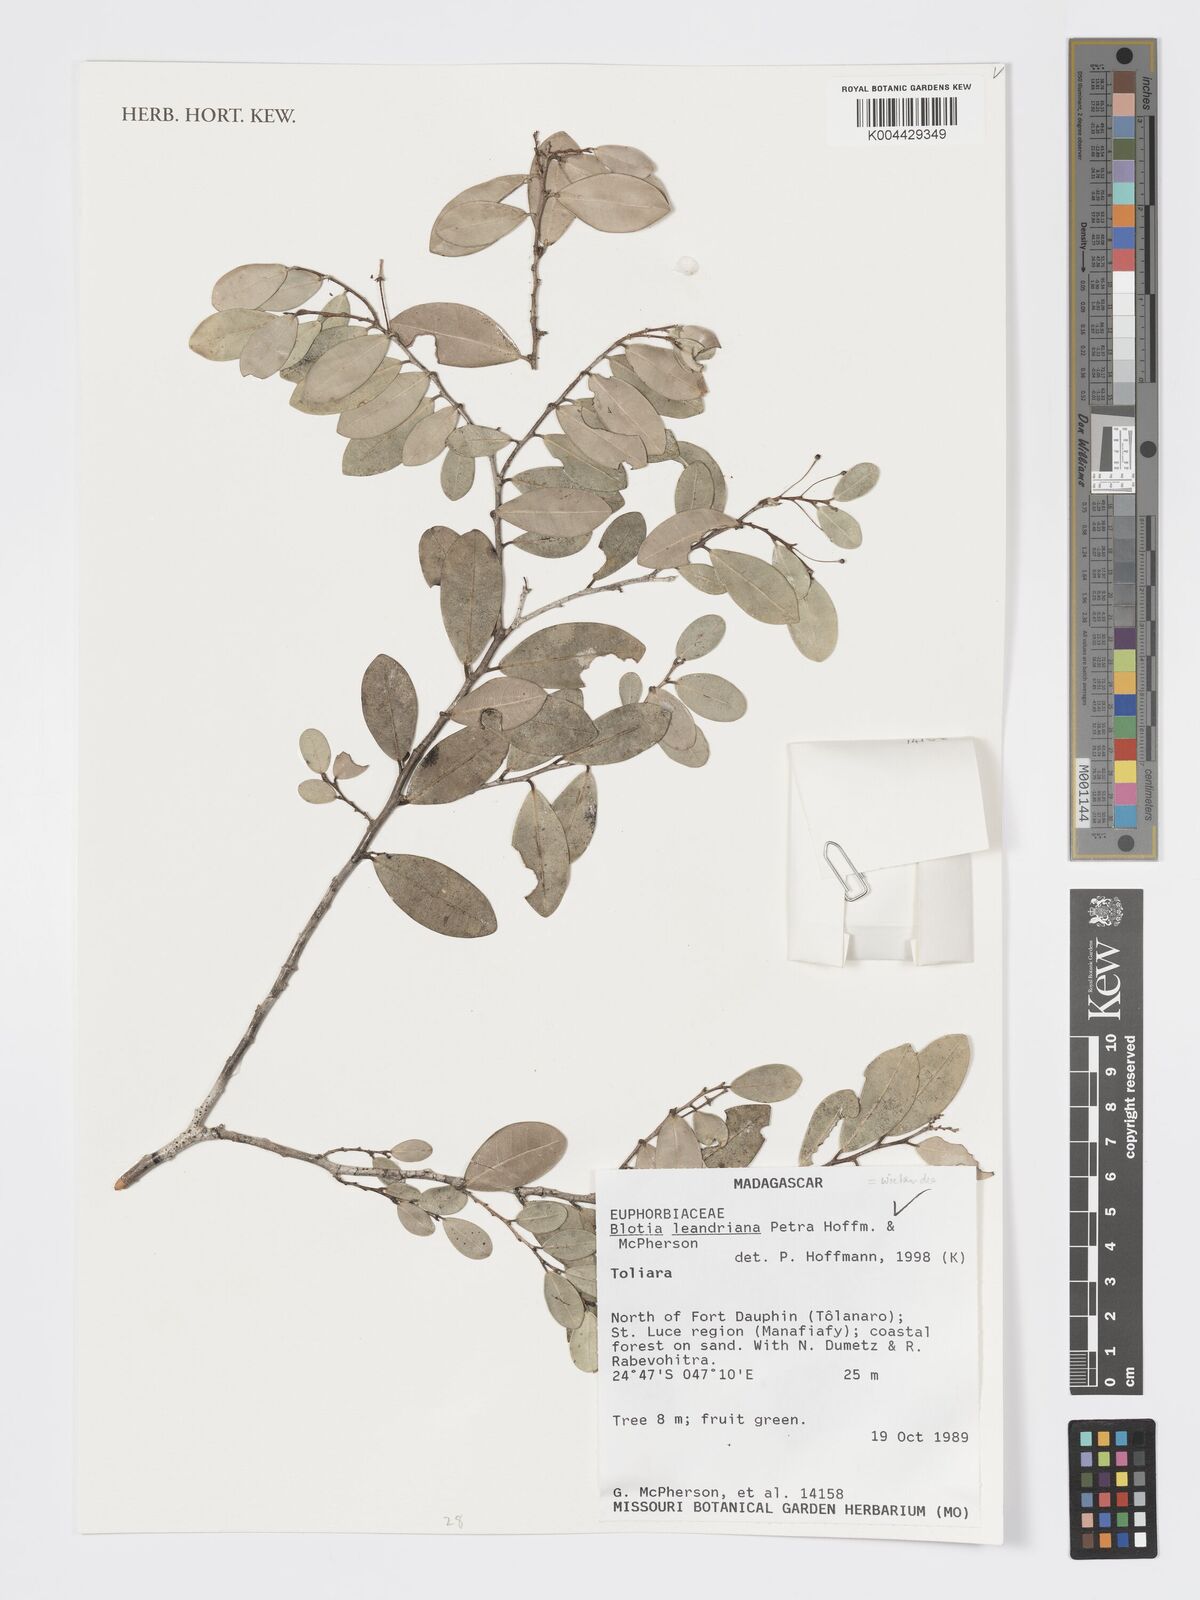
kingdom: Plantae
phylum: Tracheophyta
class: Magnoliopsida
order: Malpighiales
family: Phyllanthaceae
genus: Wielandia
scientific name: Wielandia leandriana
